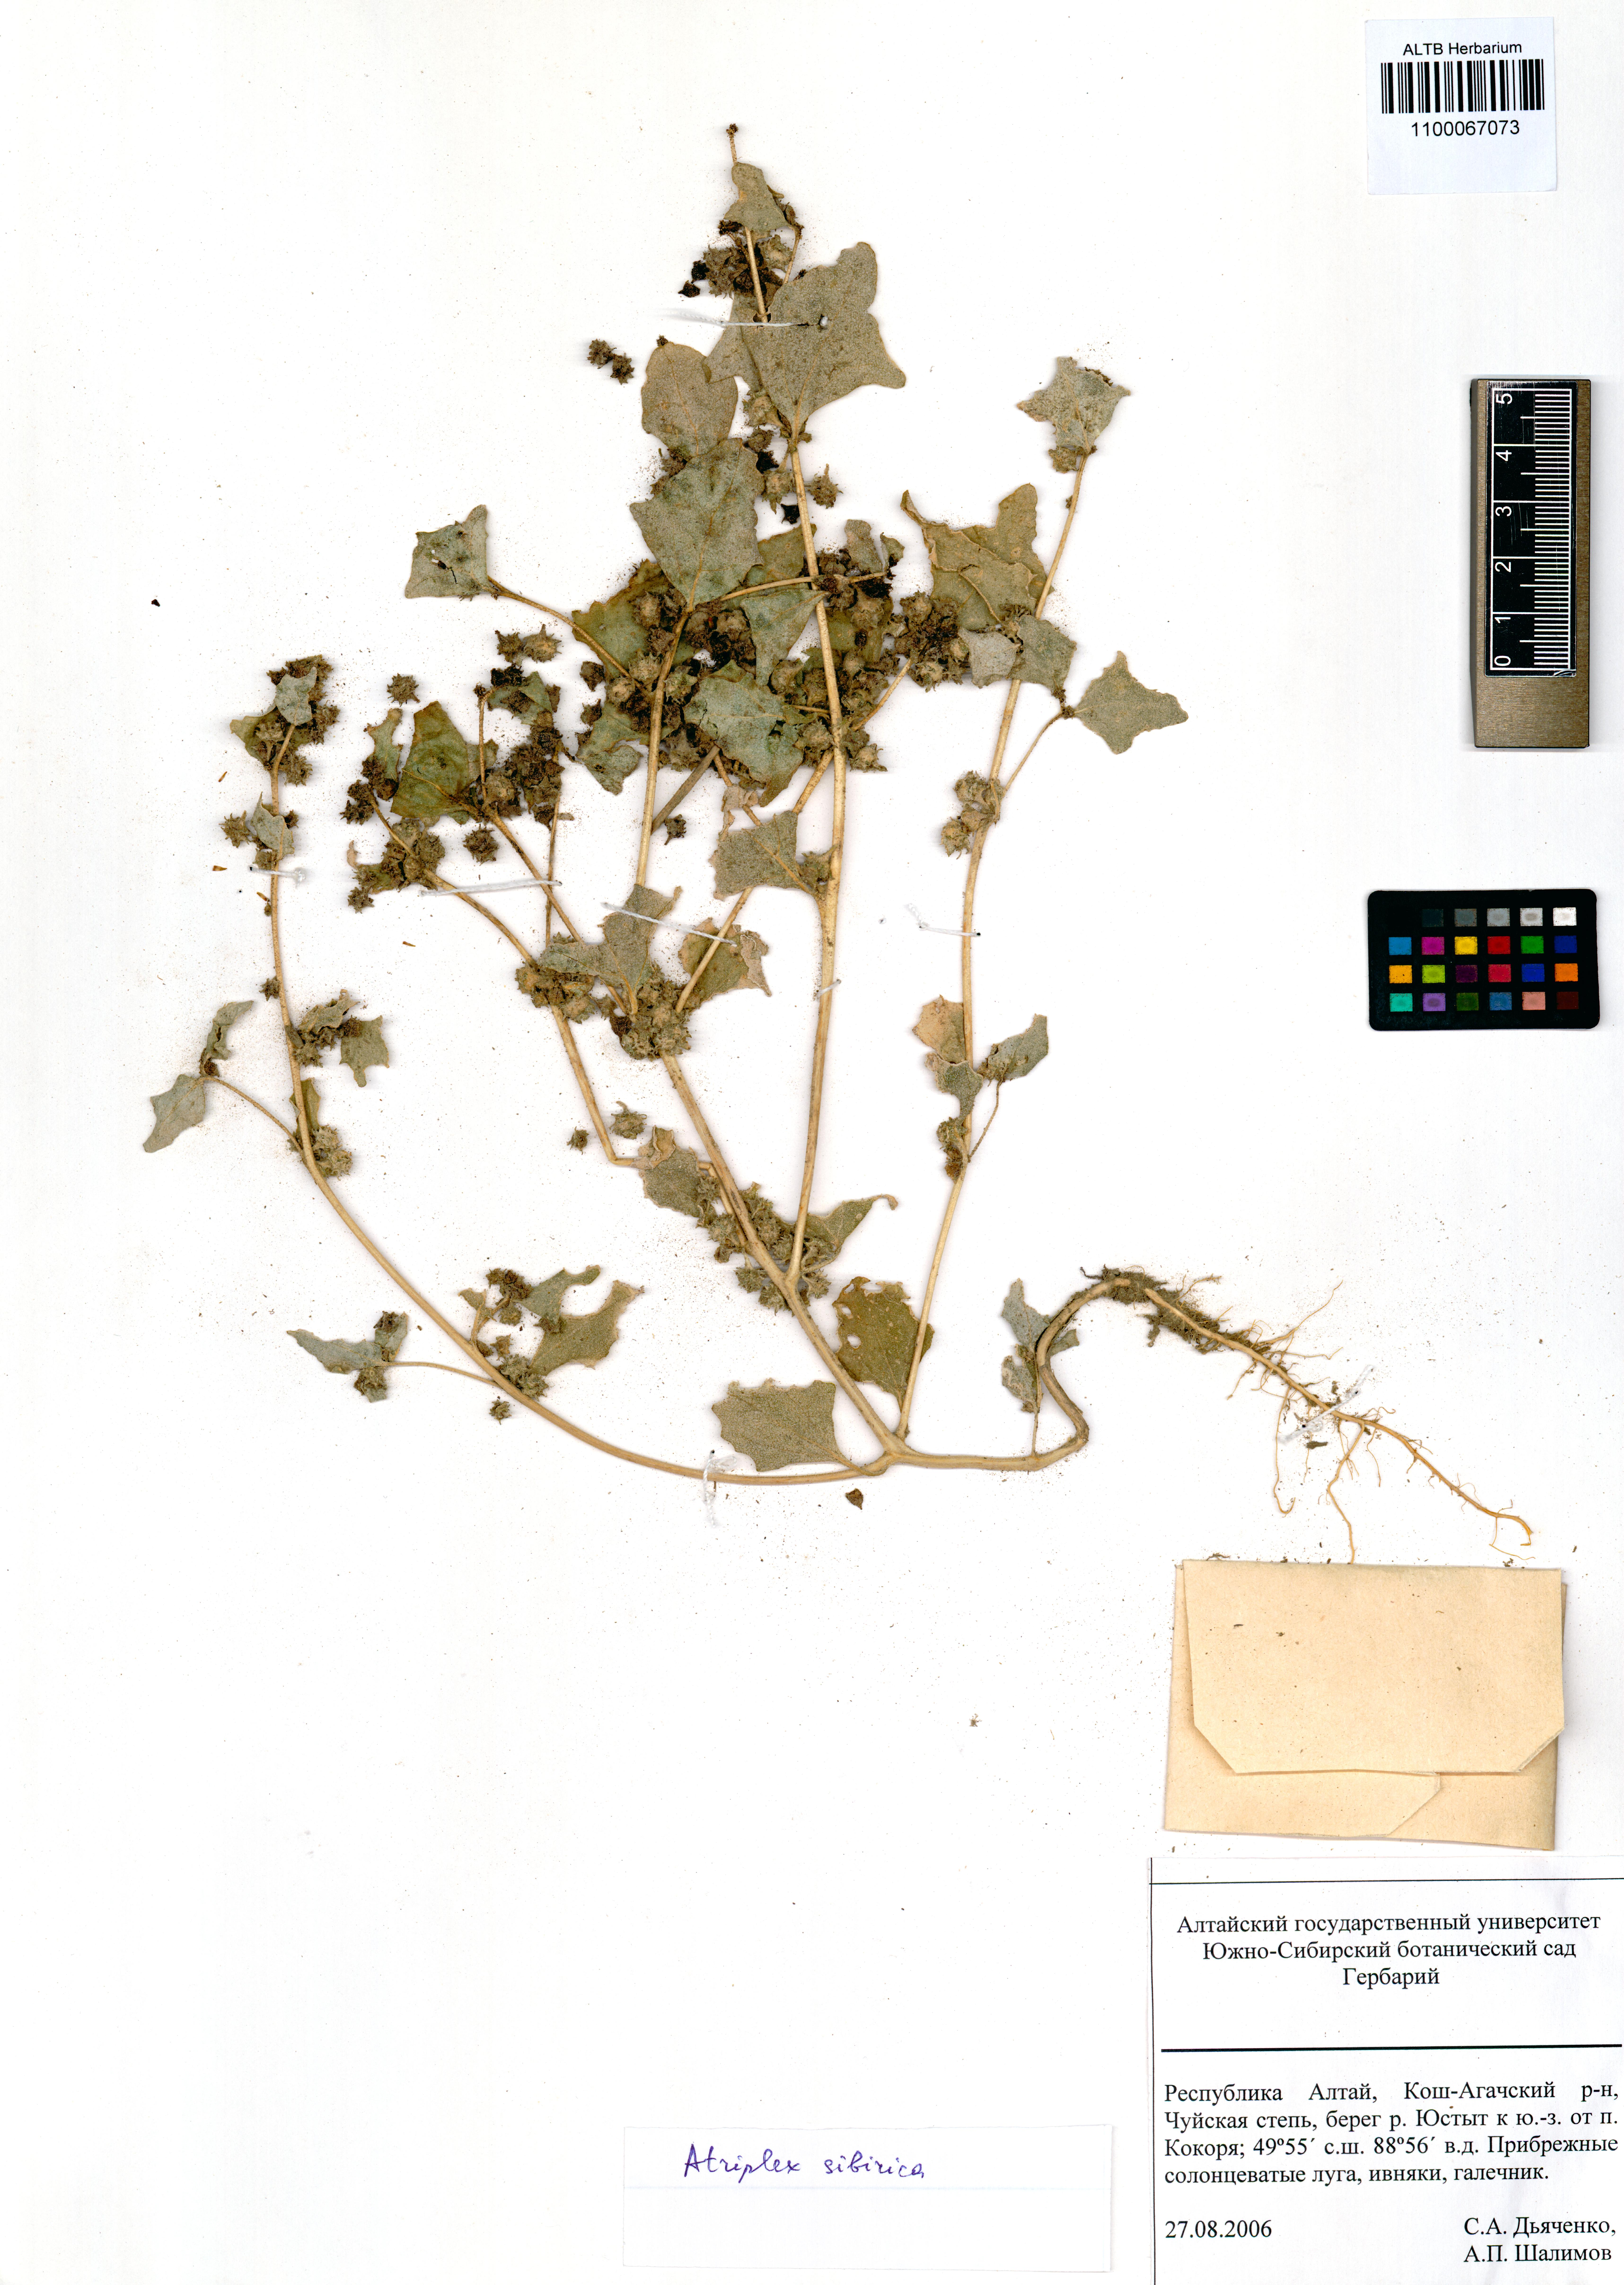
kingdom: Plantae
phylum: Tracheophyta
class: Magnoliopsida
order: Caryophyllales
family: Amaranthaceae
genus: Atriplex
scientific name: Atriplex sibirica
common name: Siberian saltbush
